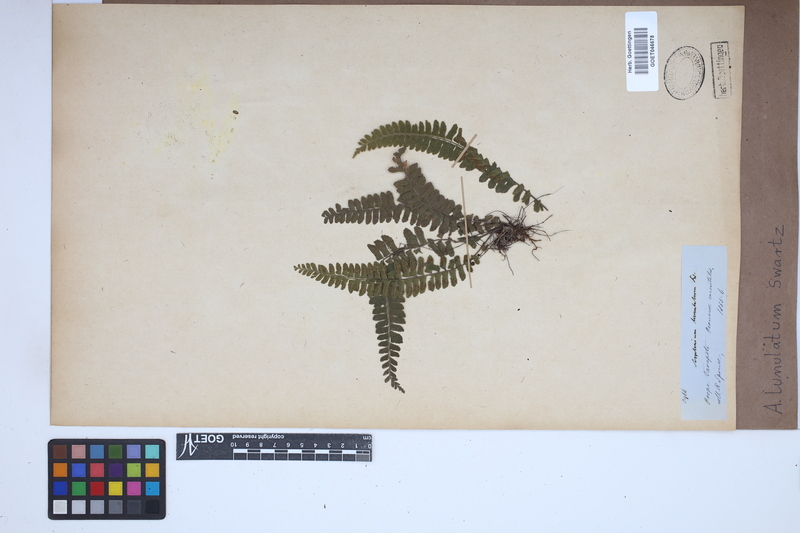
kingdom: Plantae
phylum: Tracheophyta
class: Polypodiopsida
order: Polypodiales
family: Aspleniaceae
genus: Asplenium
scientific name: Asplenium lunulatum
